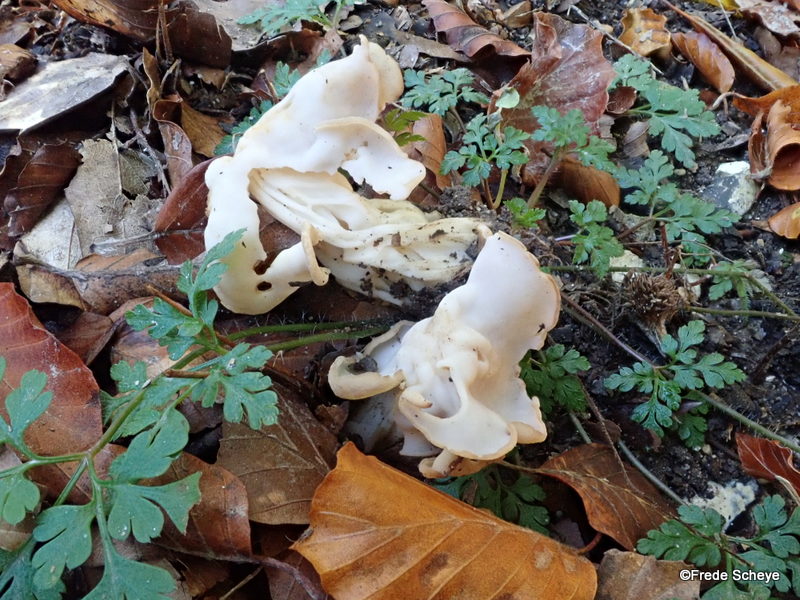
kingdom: Fungi
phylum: Ascomycota
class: Pezizomycetes
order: Pezizales
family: Helvellaceae
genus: Helvella
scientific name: Helvella crispa
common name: kruset foldhat
